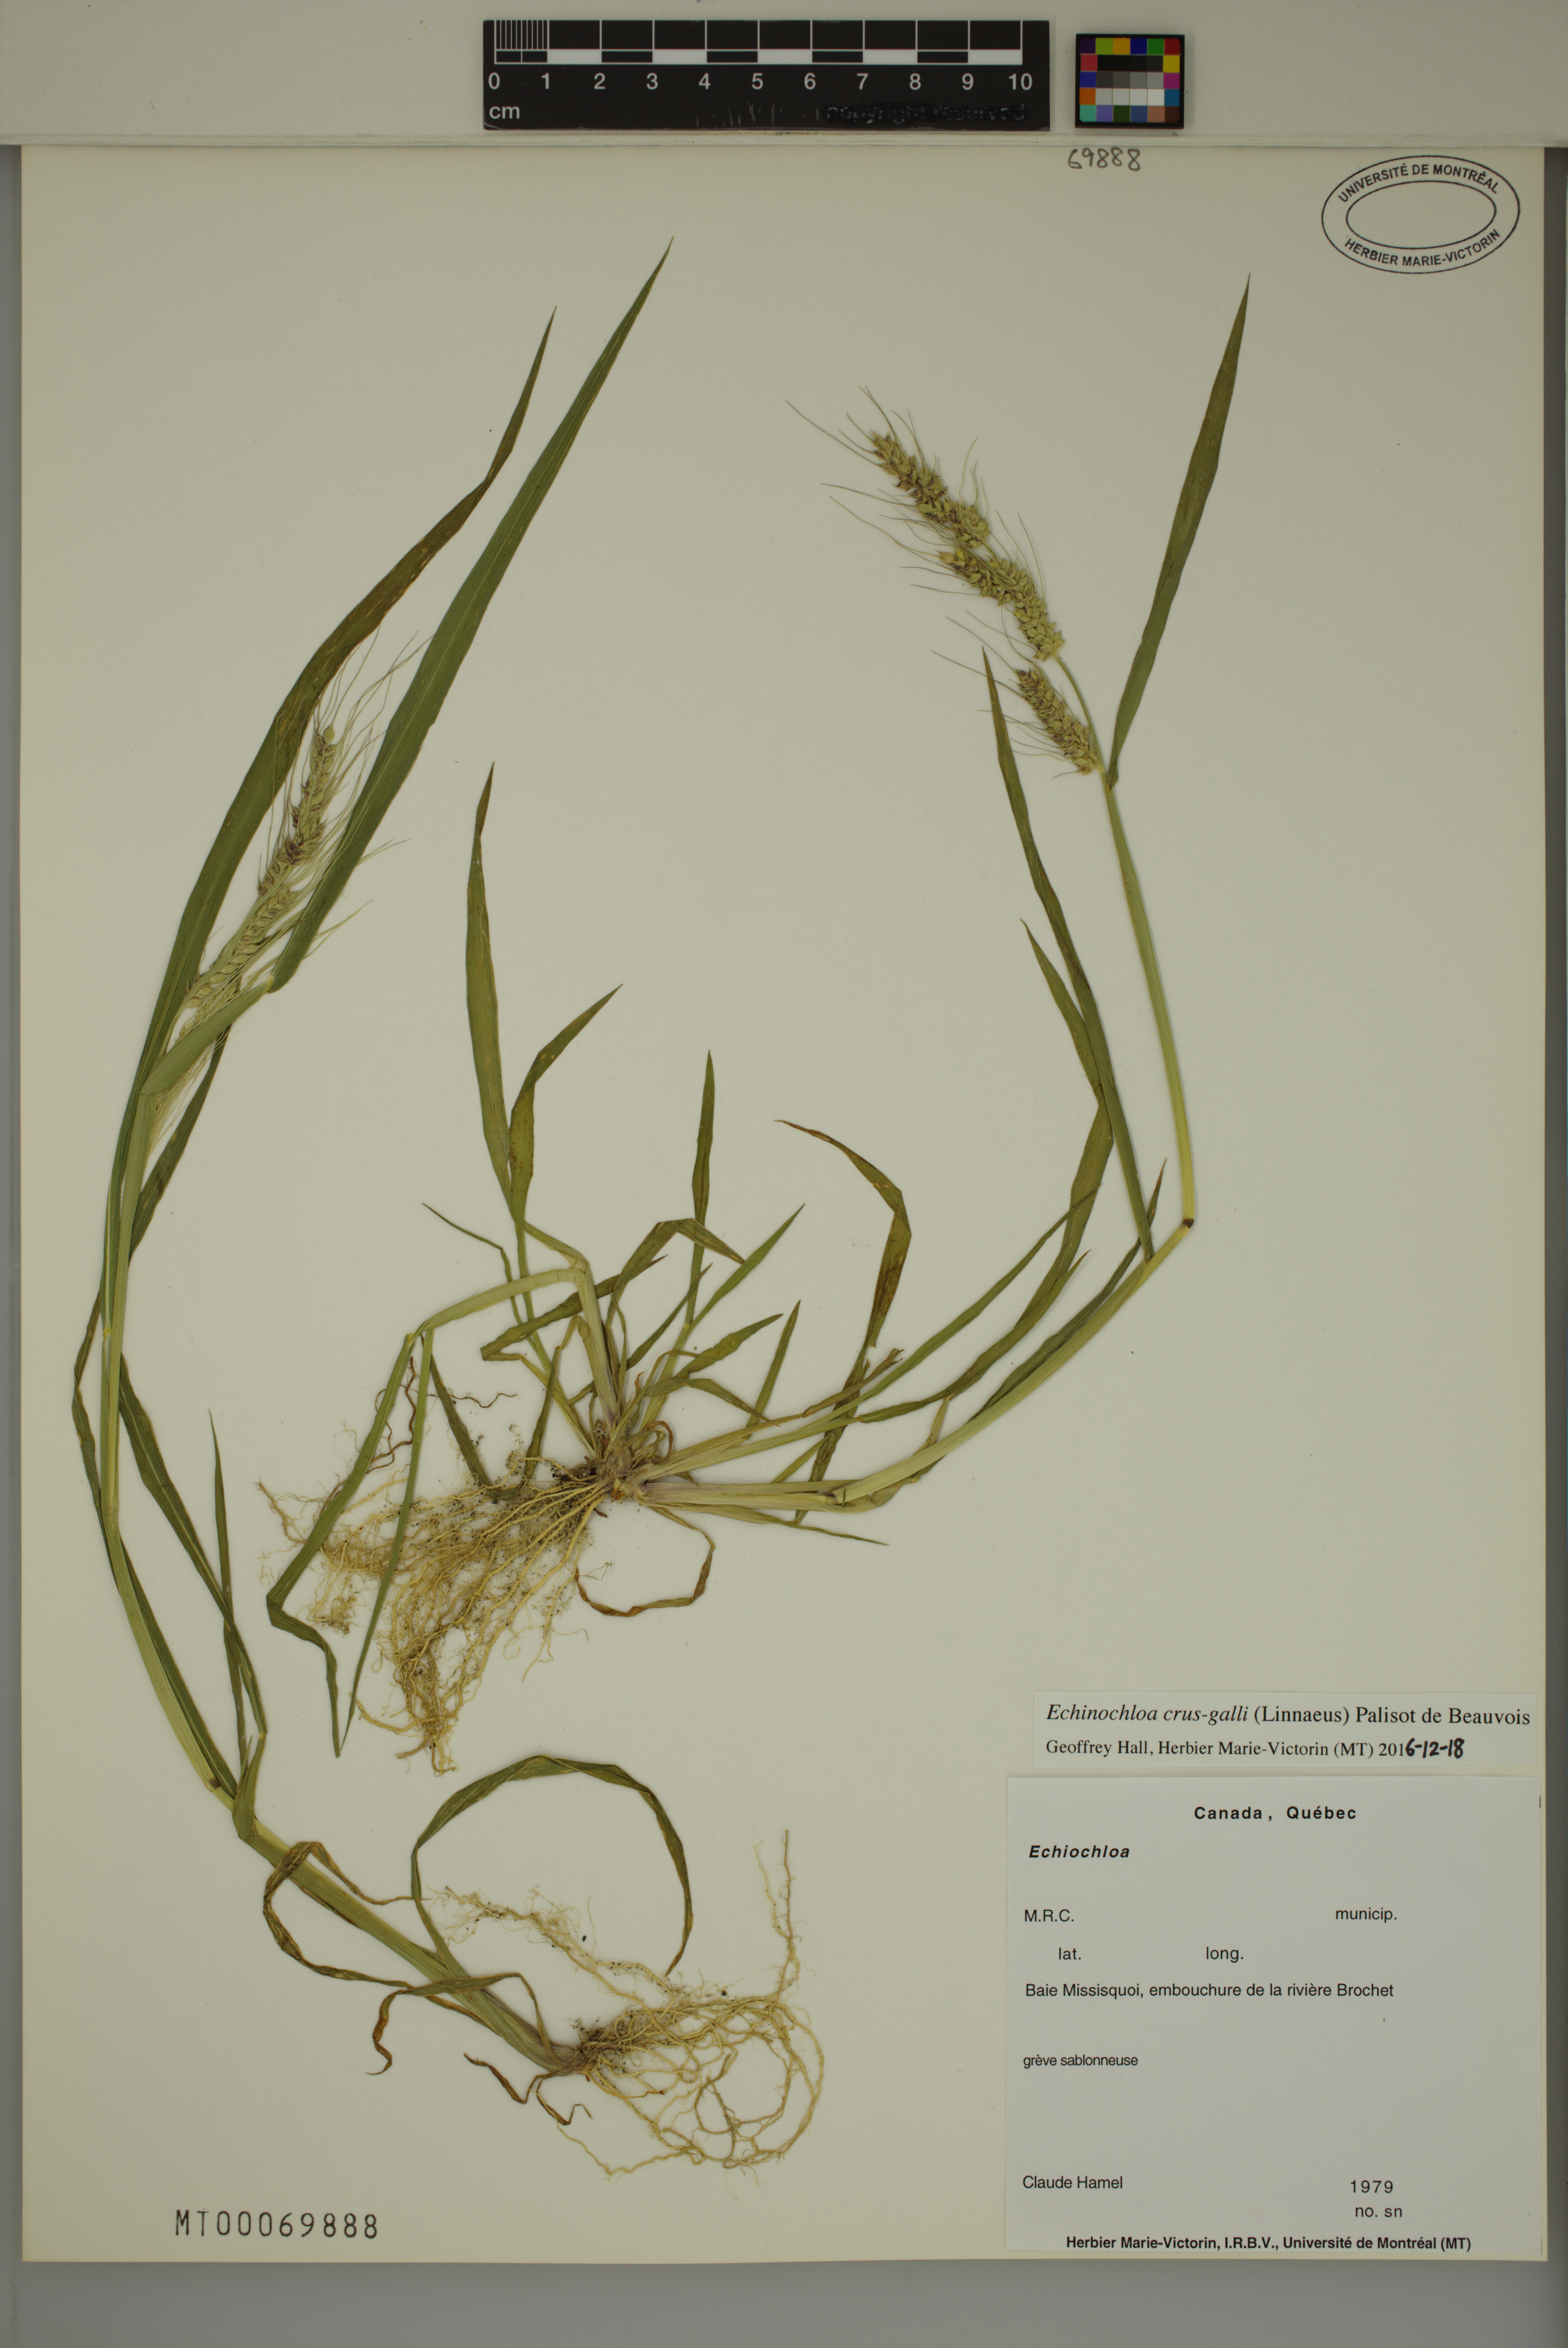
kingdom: Plantae
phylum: Tracheophyta
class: Liliopsida
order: Poales
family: Poaceae
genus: Echinochloa
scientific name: Echinochloa crus-galli
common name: Cockspur
